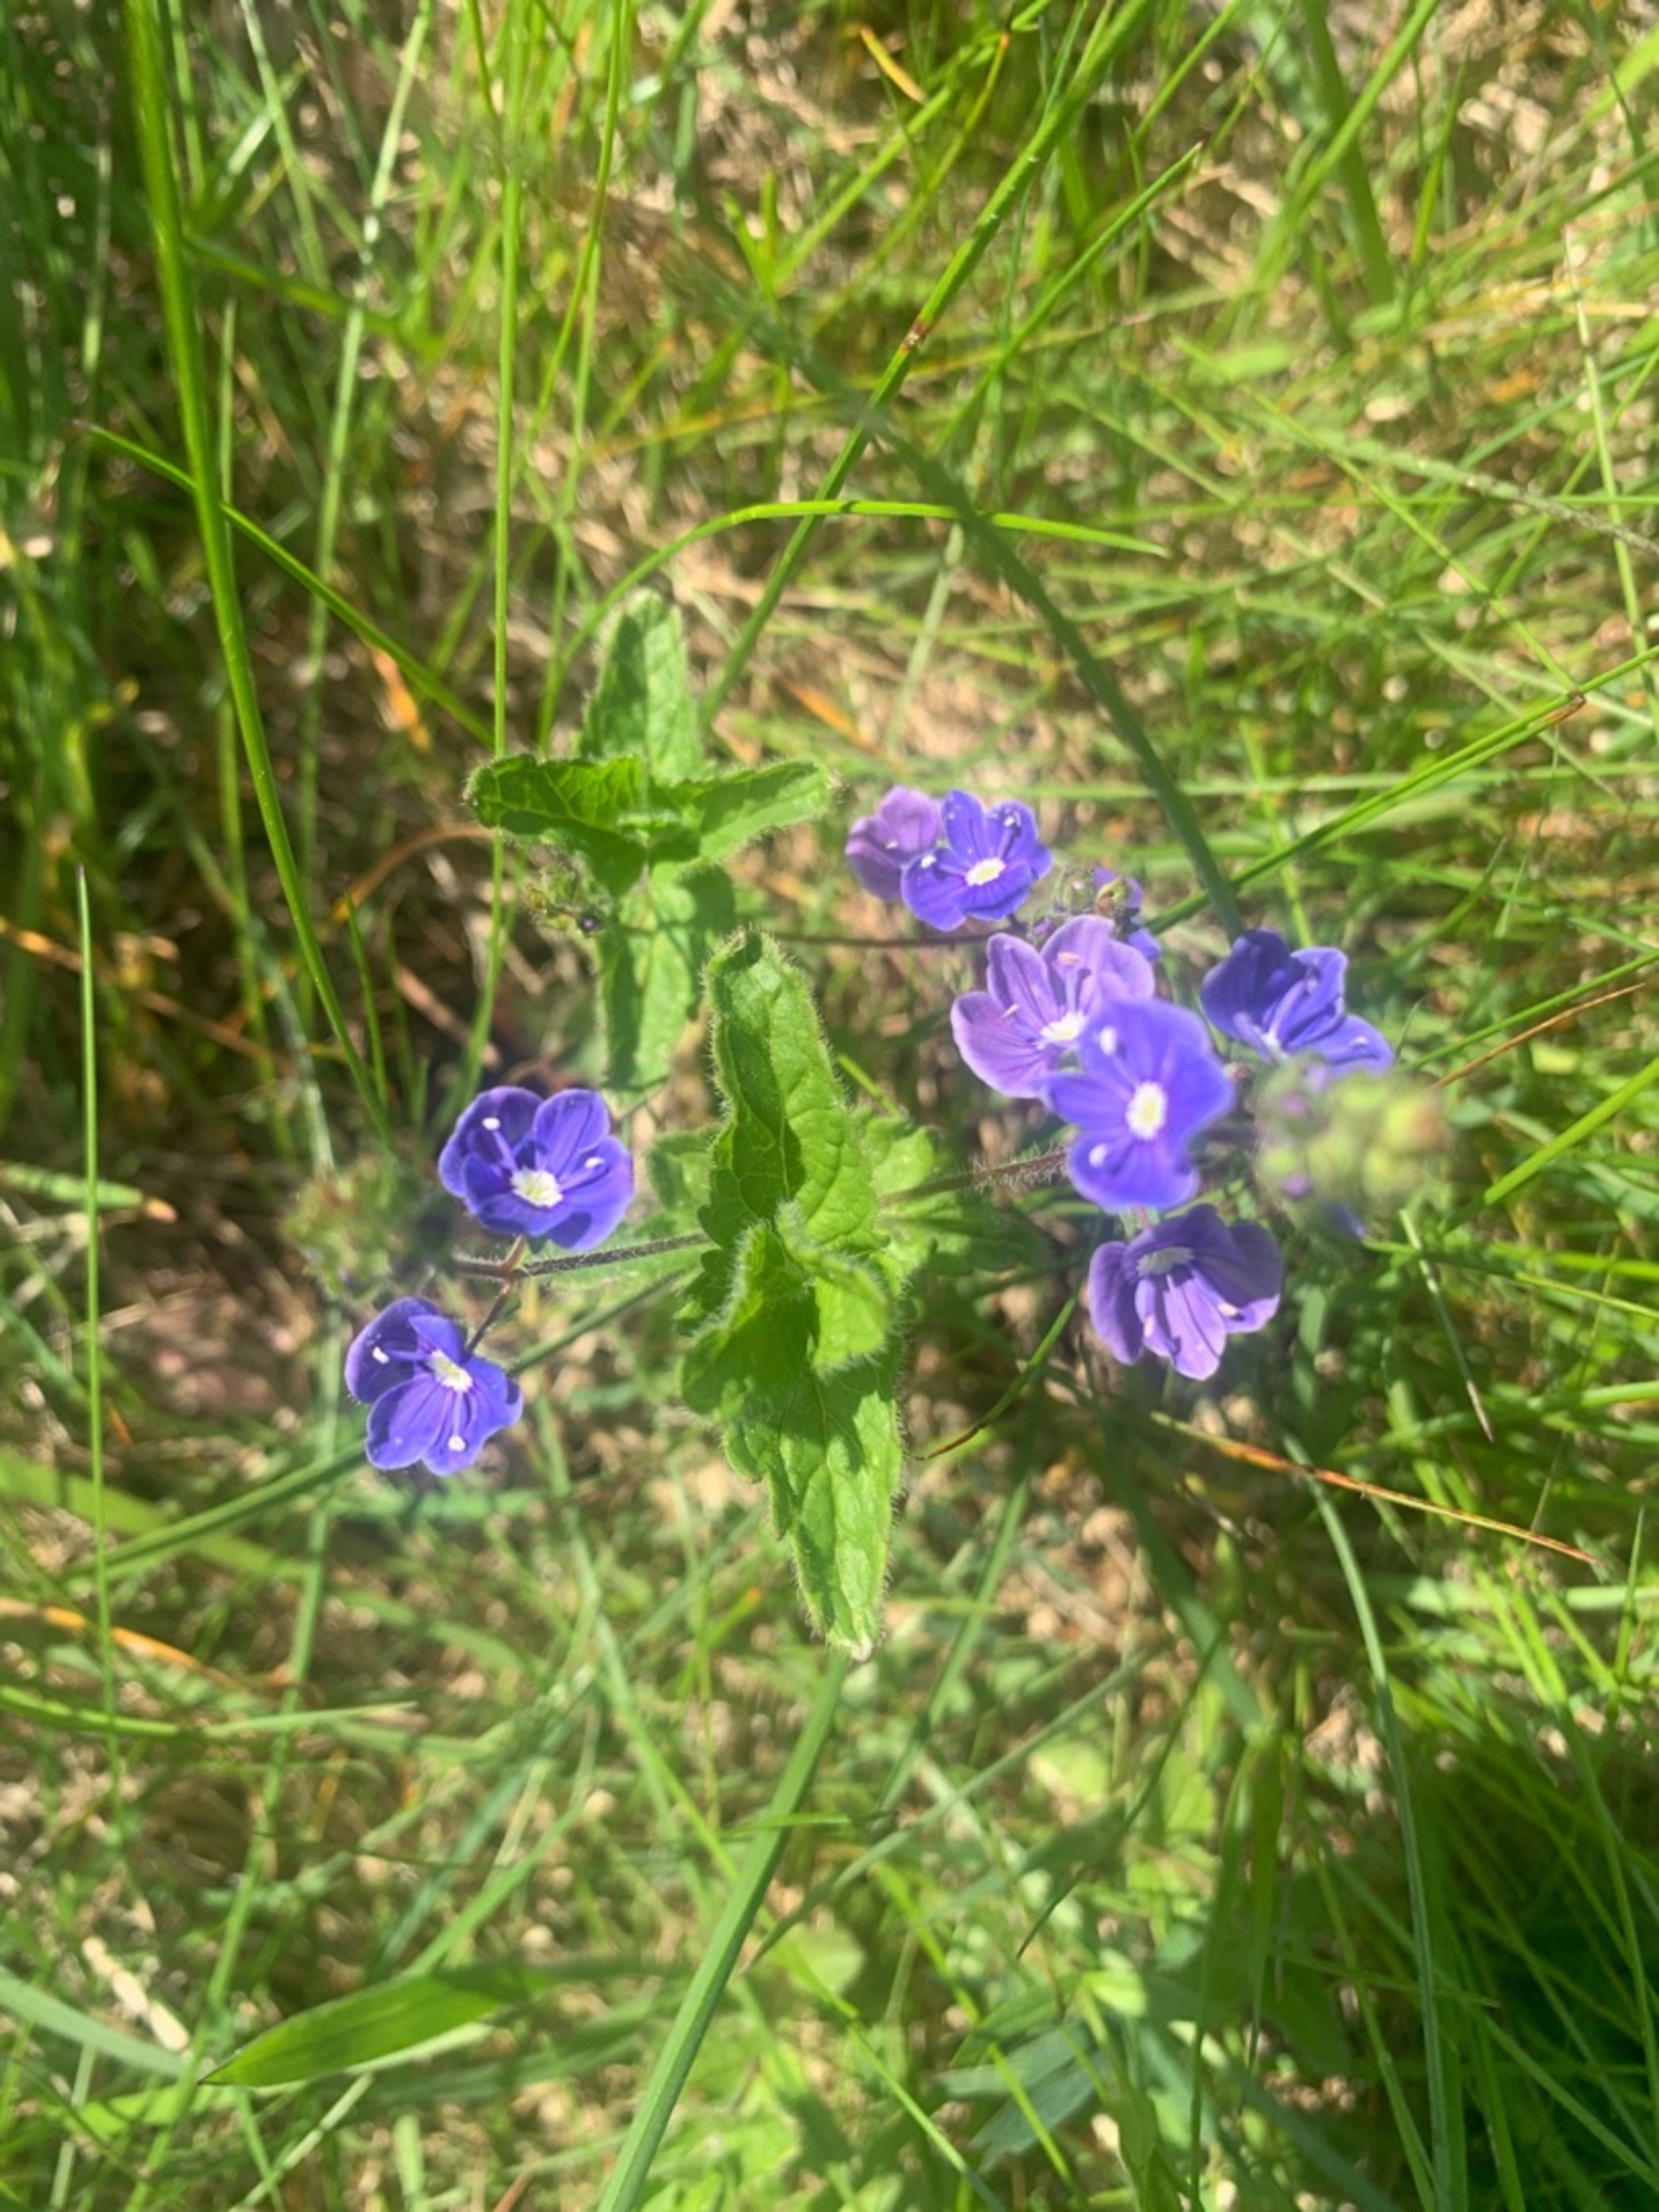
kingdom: Plantae
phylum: Tracheophyta
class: Magnoliopsida
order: Lamiales
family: Plantaginaceae
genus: Veronica
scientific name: Veronica chamaedrys
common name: Tveskægget ærenpris
